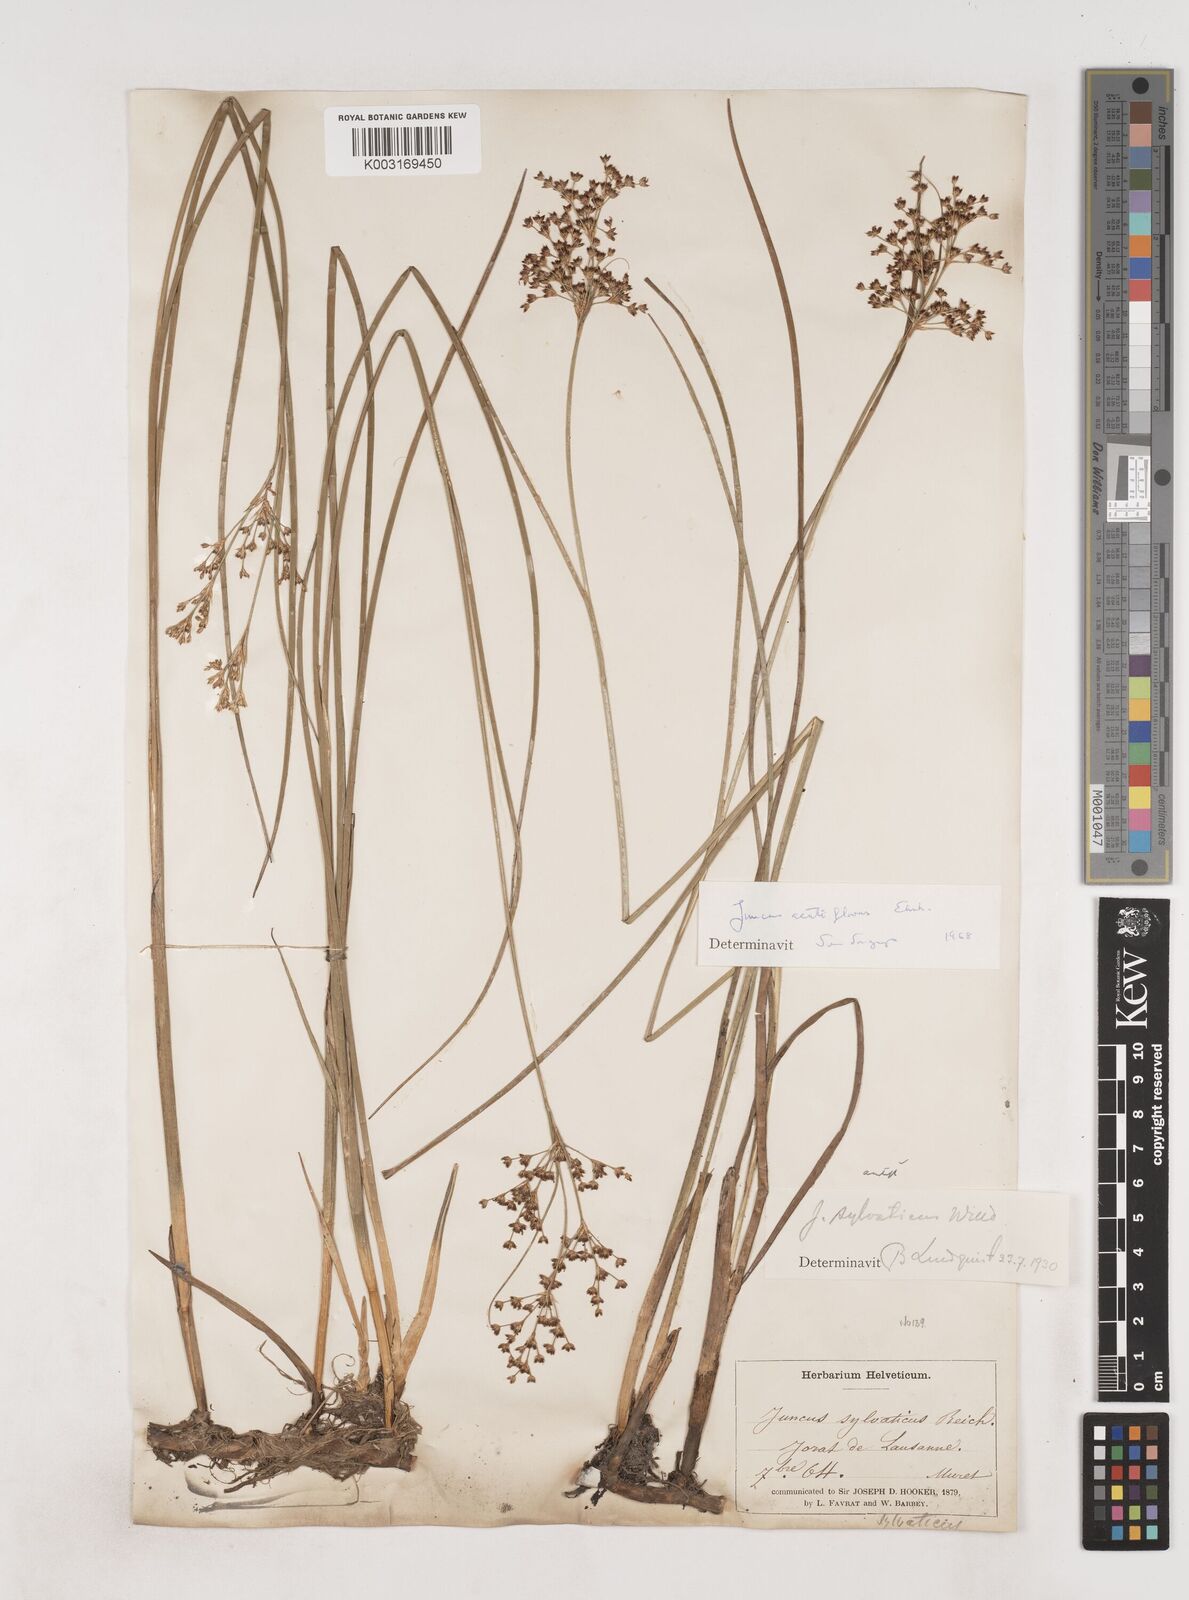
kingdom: Plantae
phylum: Tracheophyta
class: Liliopsida
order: Poales
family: Juncaceae
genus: Juncus
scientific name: Juncus acutiflorus
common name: Sharp-flowered rush
